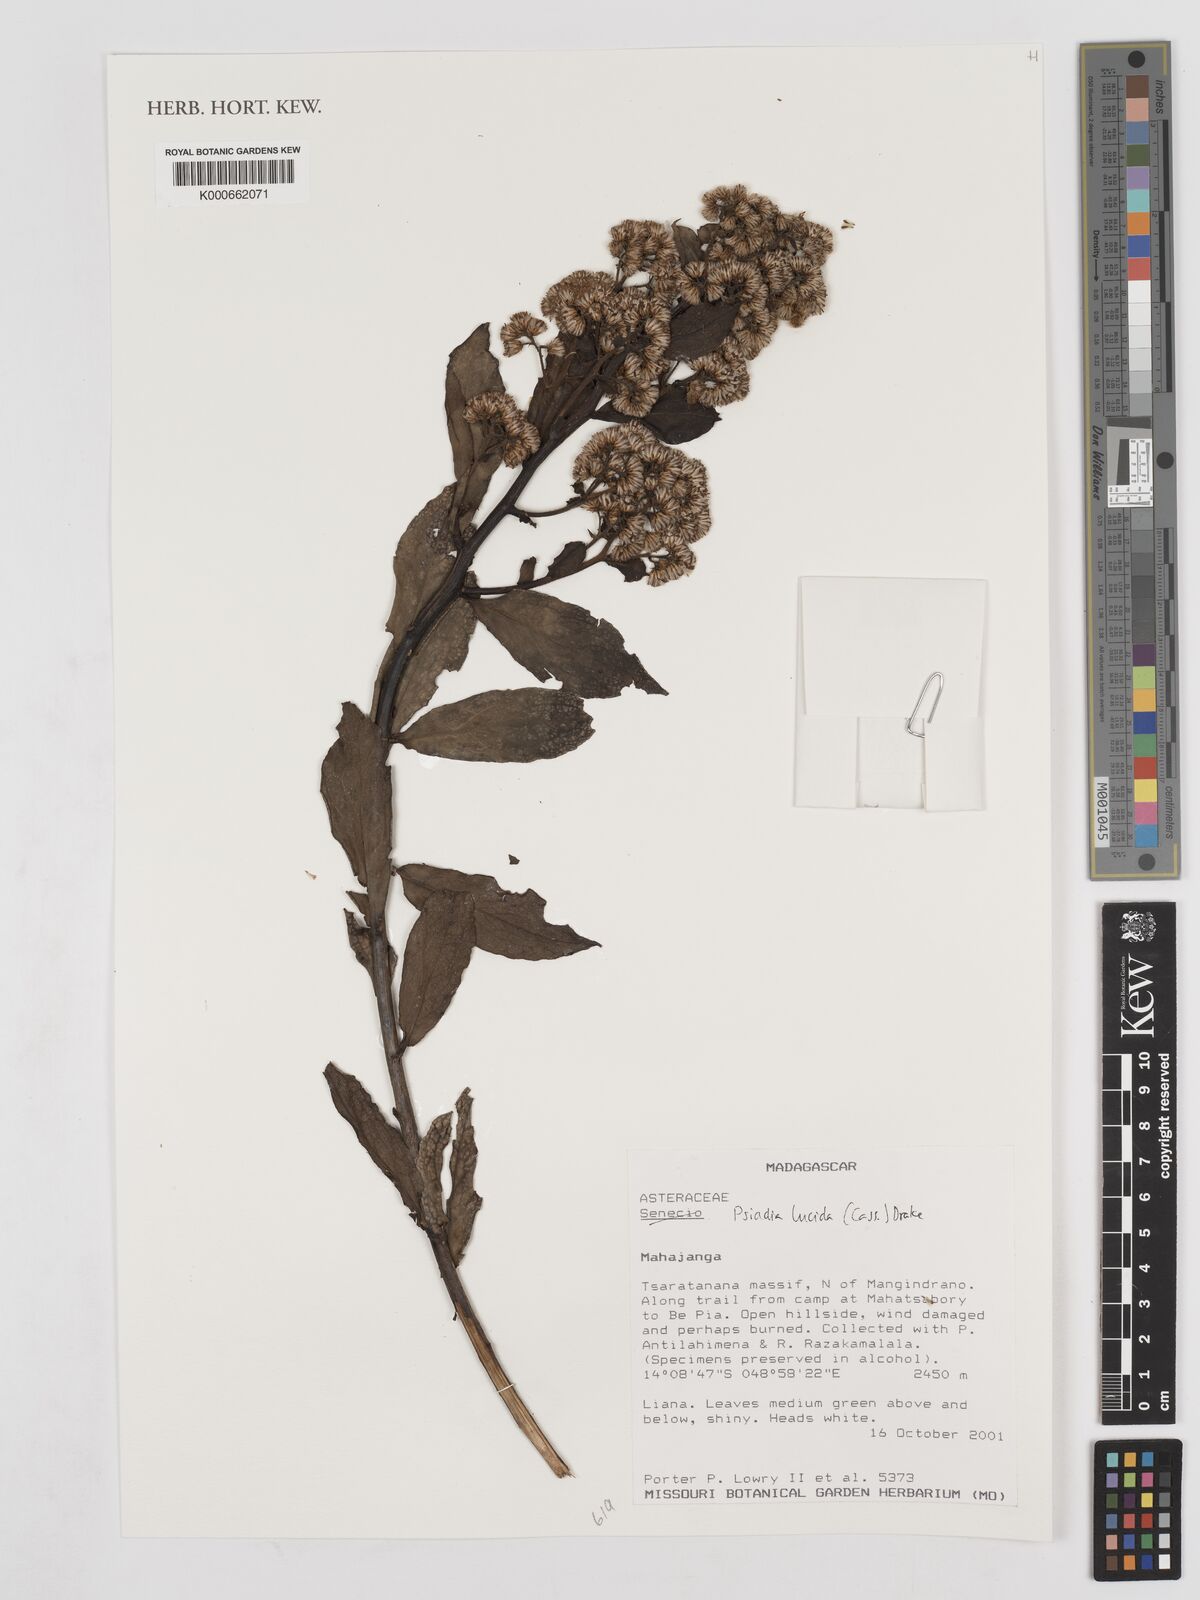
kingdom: Plantae
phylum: Tracheophyta
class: Magnoliopsida
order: Asterales
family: Asteraceae
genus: Psiadia
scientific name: Psiadia lucida
